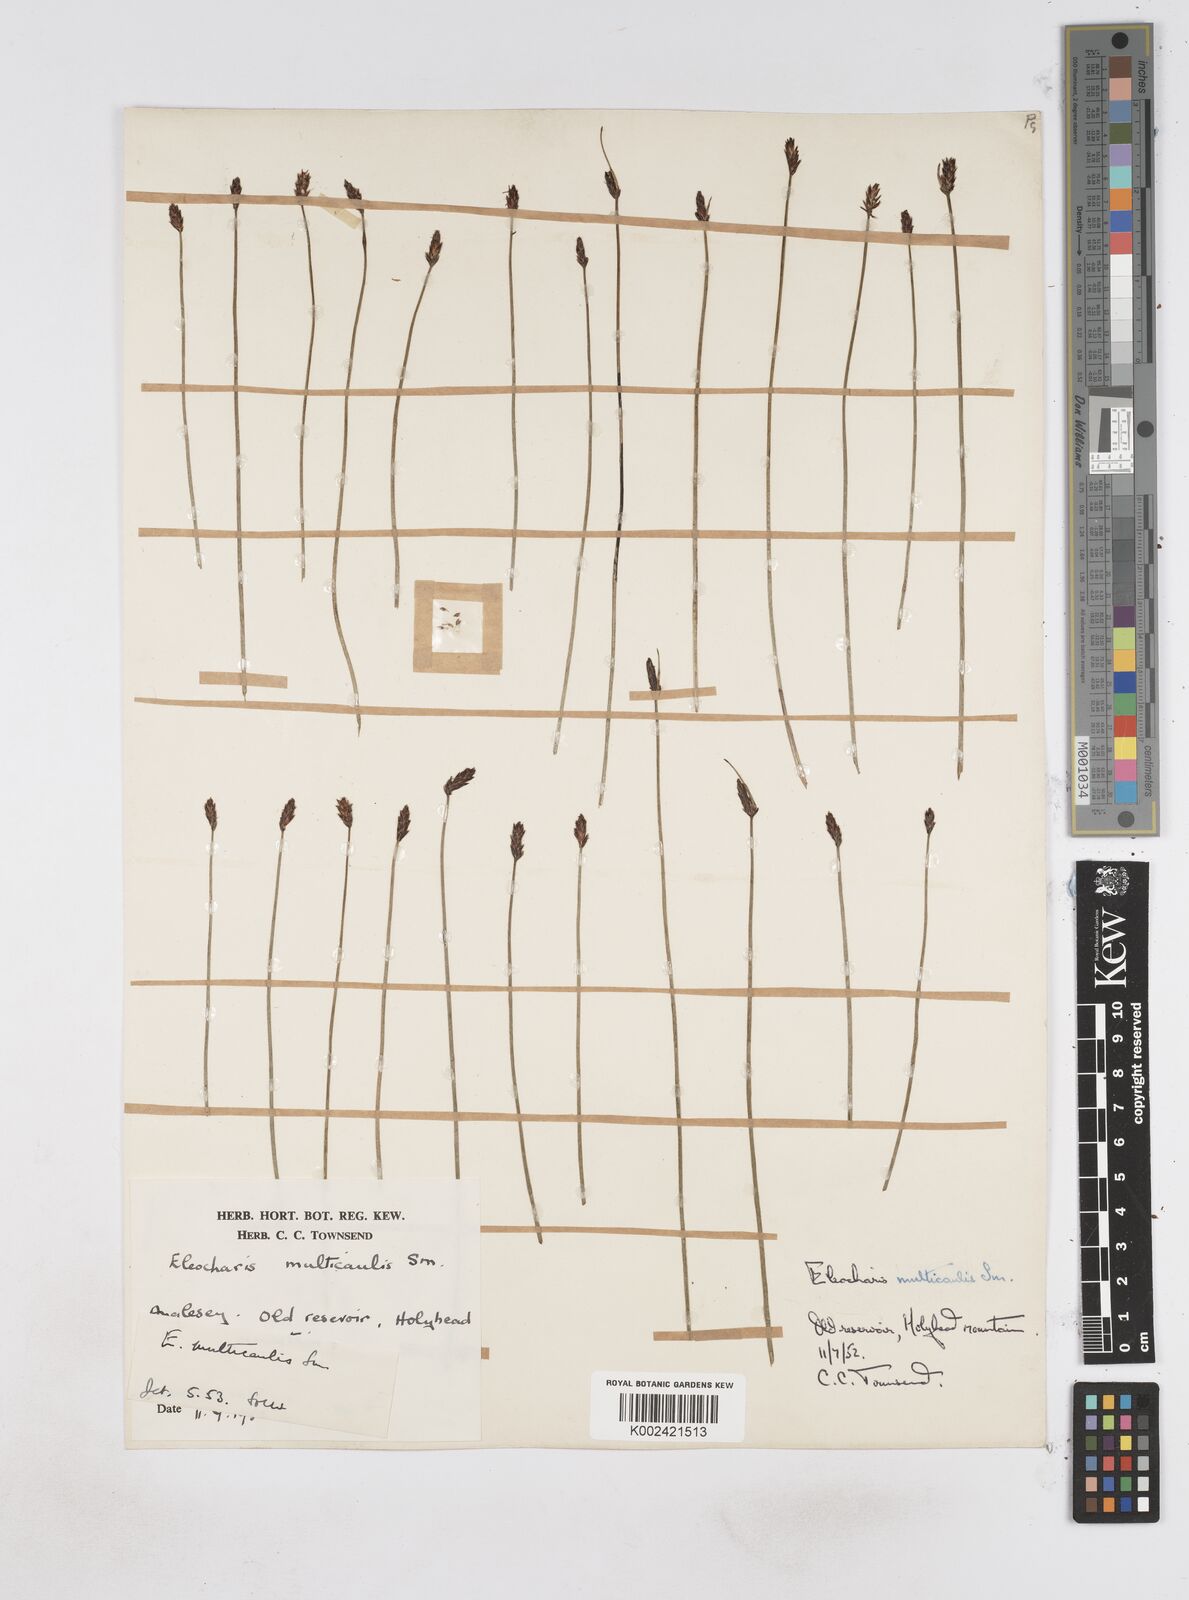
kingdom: Plantae
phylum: Tracheophyta
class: Liliopsida
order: Poales
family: Cyperaceae
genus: Eleocharis
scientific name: Eleocharis multicaulis
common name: Many-stalked spike-rush
